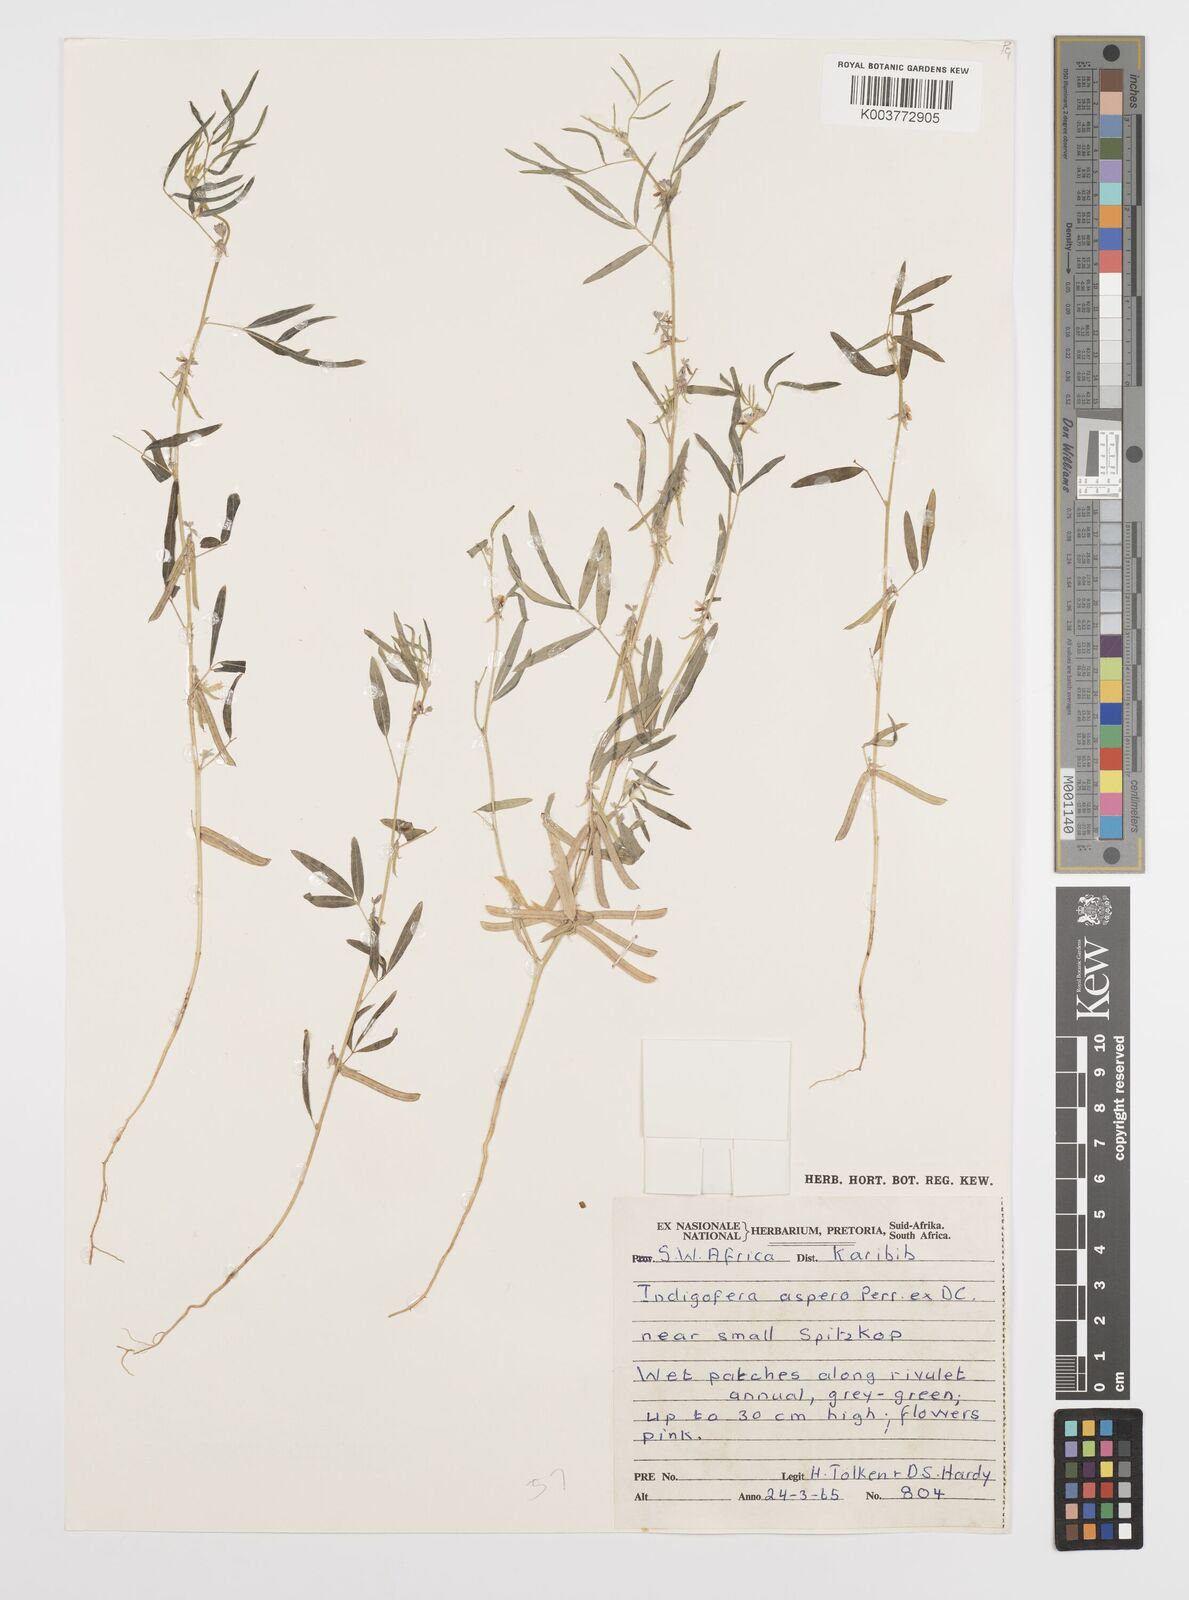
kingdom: Plantae
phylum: Tracheophyta
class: Magnoliopsida
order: Fabales
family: Fabaceae
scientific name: Fabaceae
